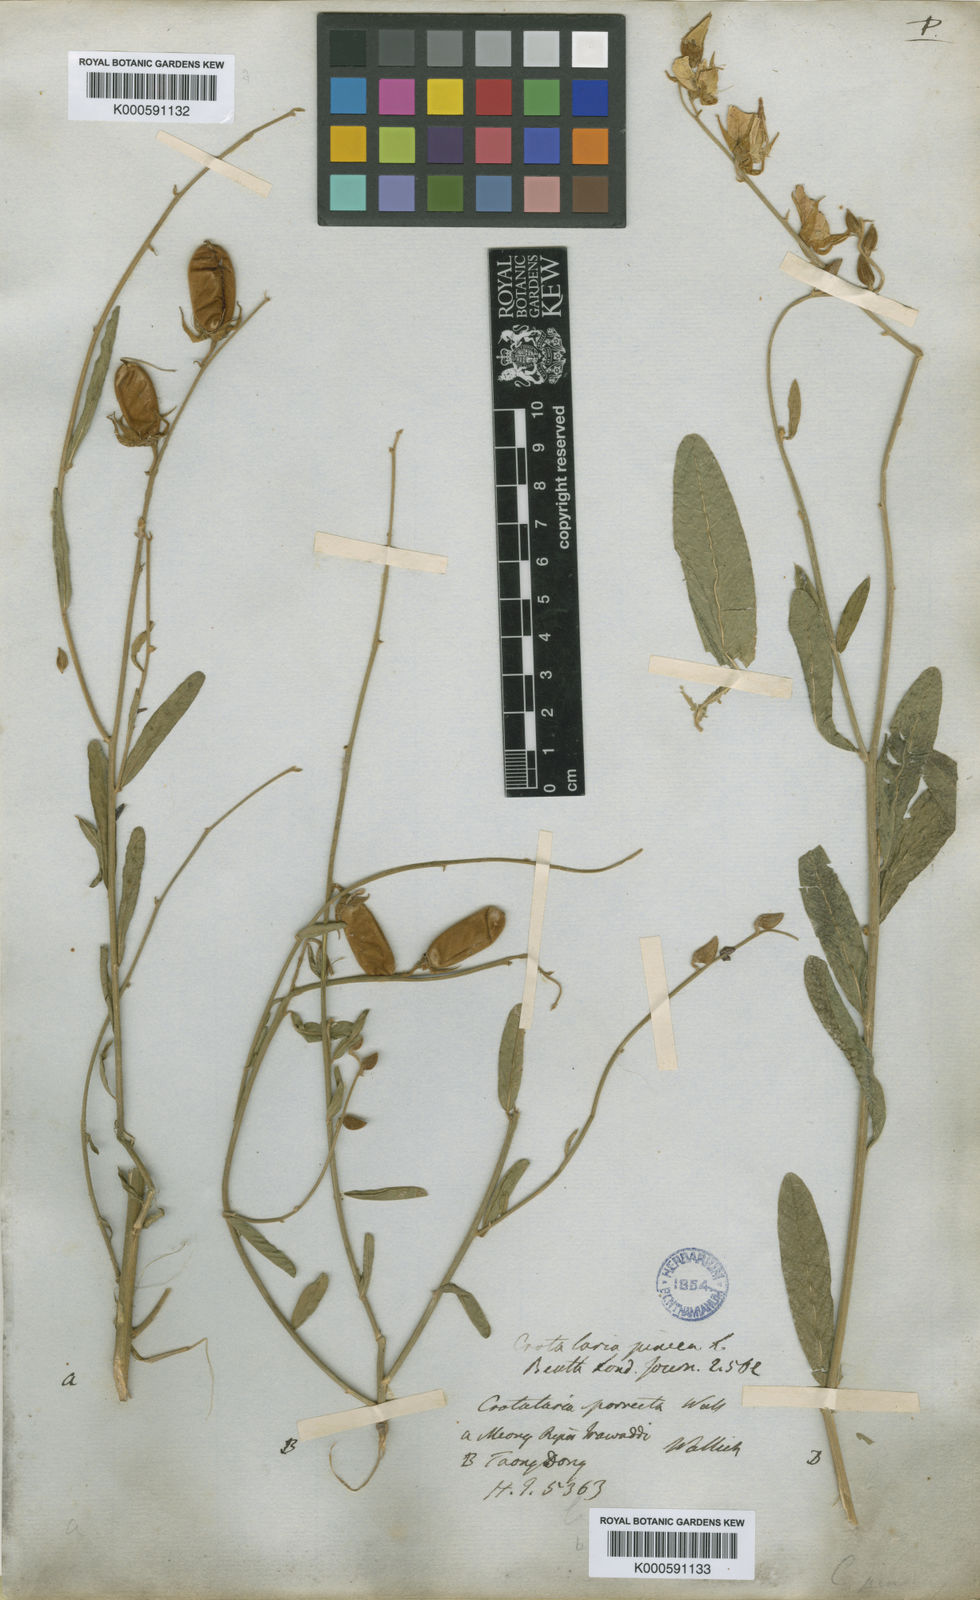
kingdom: Plantae
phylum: Tracheophyta
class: Magnoliopsida
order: Fabales
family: Fabaceae
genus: Crotalaria
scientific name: Crotalaria juncea
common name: Sunn hemp
